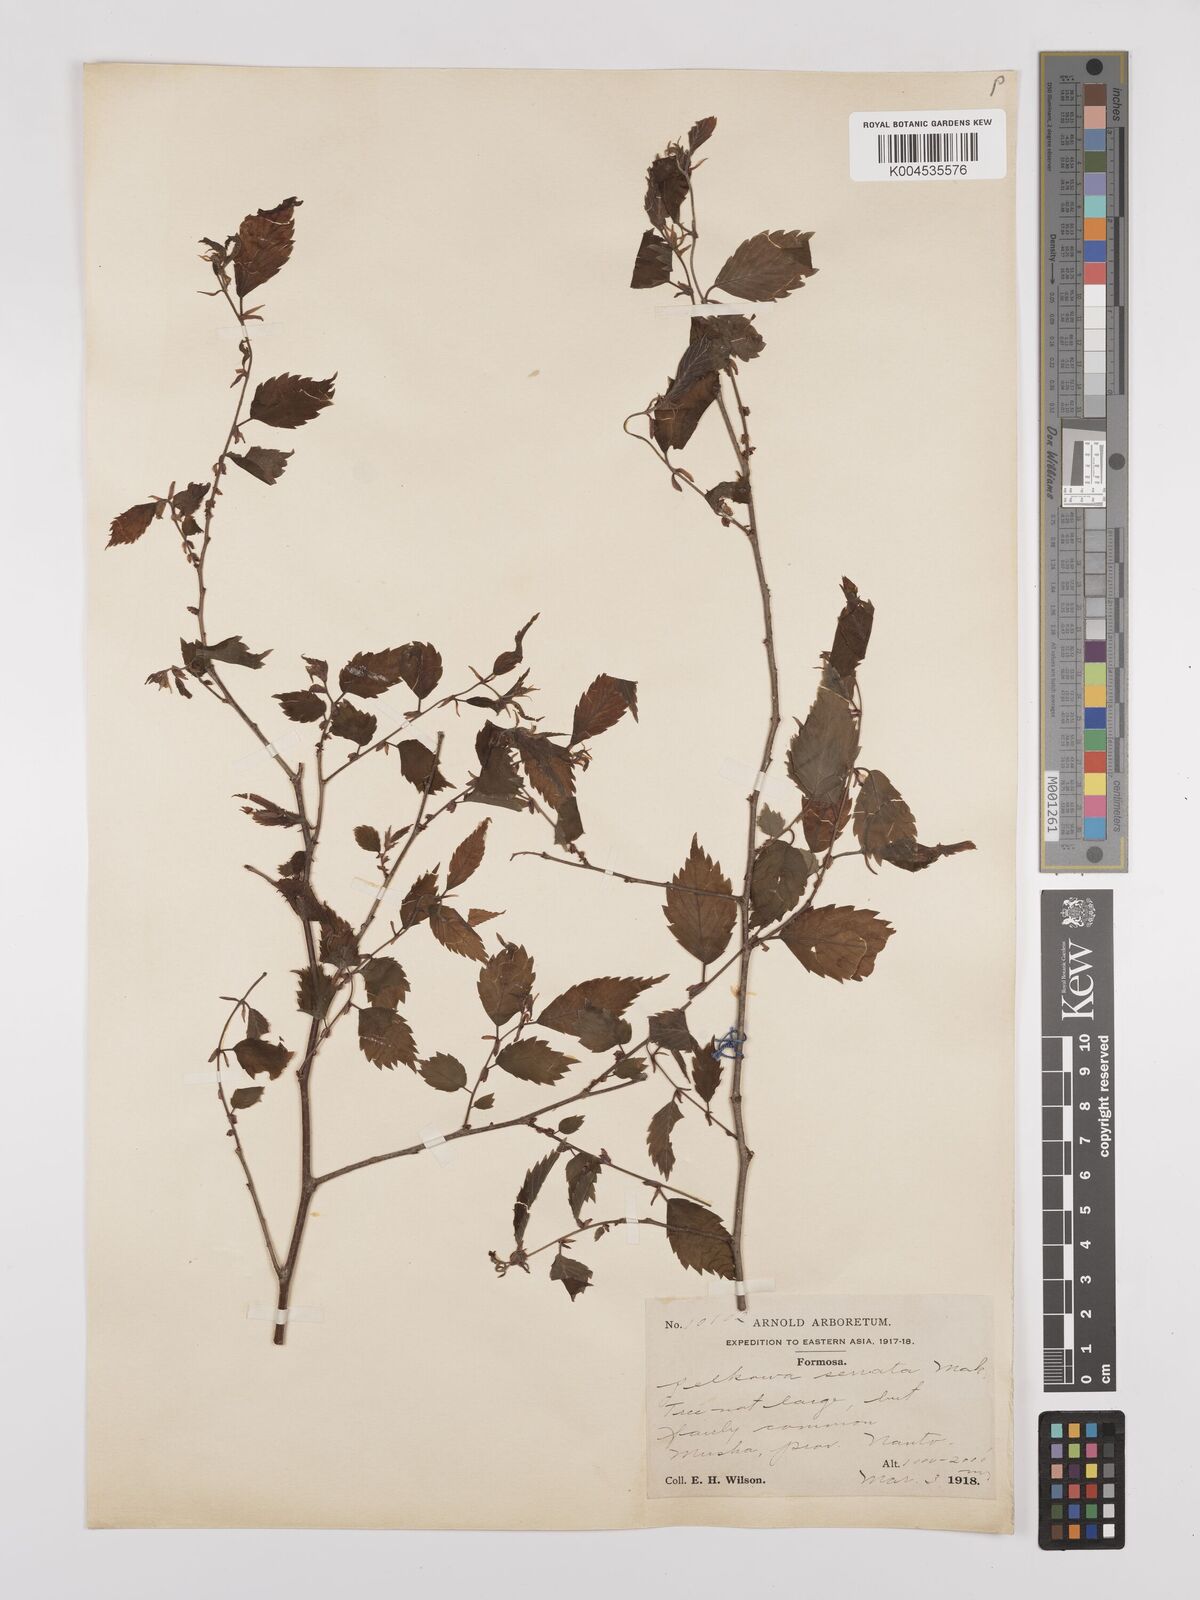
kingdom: Plantae
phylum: Tracheophyta
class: Magnoliopsida
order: Rosales
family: Ulmaceae
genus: Zelkova
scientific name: Zelkova
